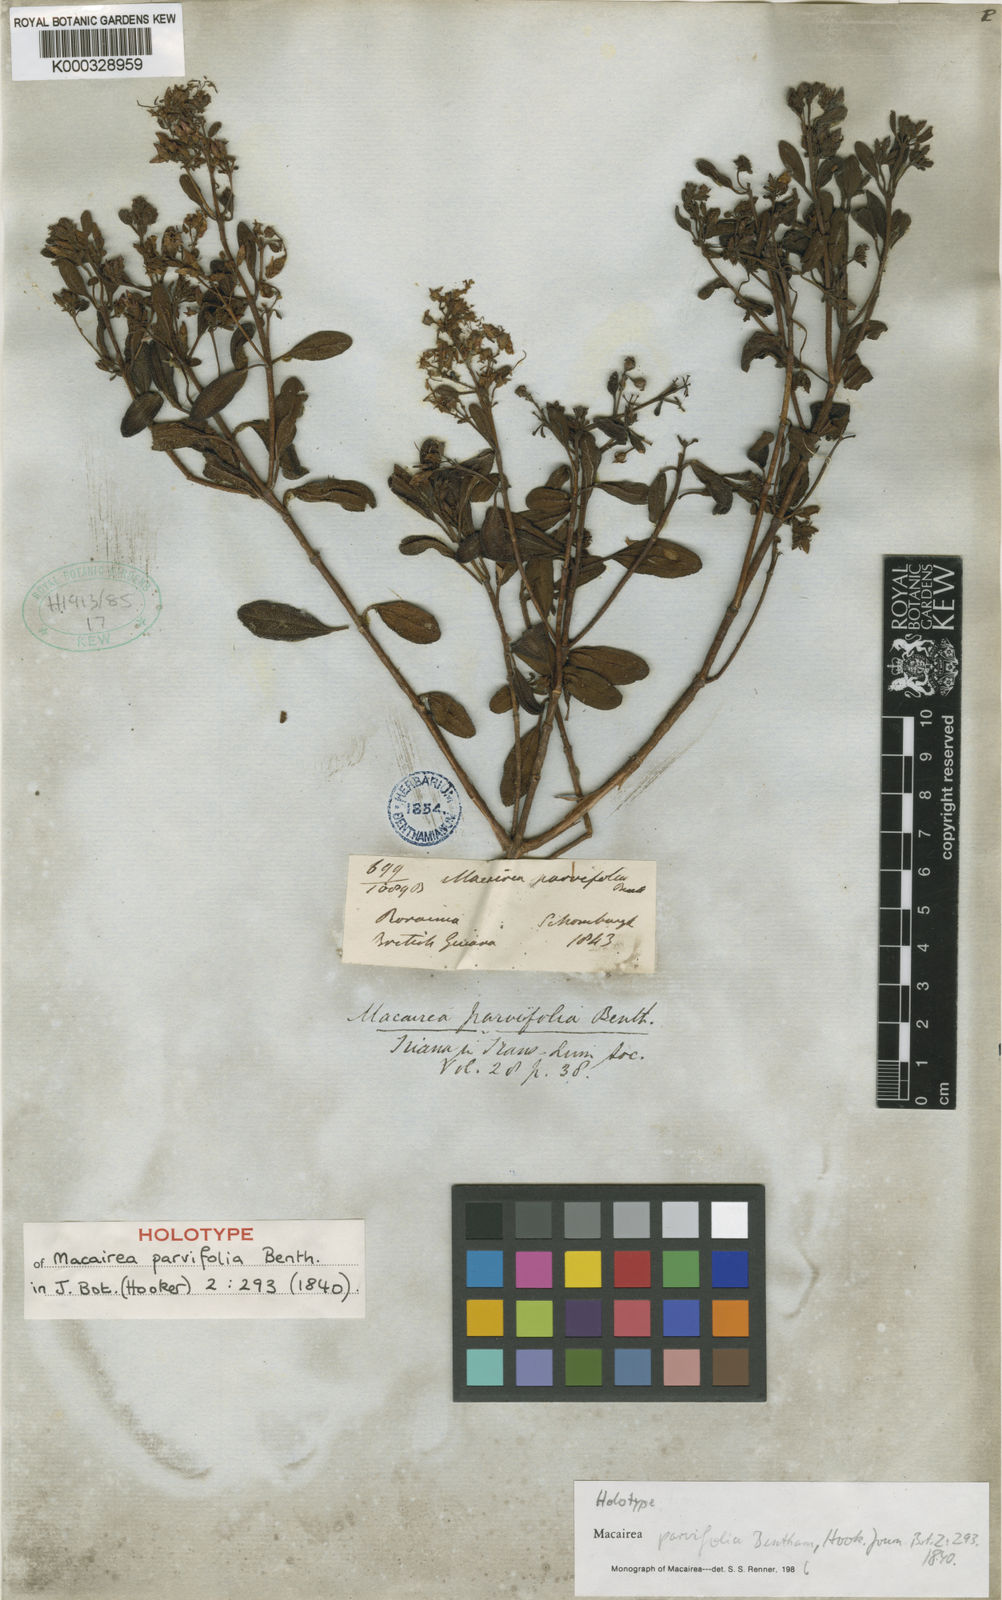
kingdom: Plantae
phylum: Tracheophyta
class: Magnoliopsida
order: Myrtales
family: Melastomataceae
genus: Macairea
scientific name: Macairea parvifolia
